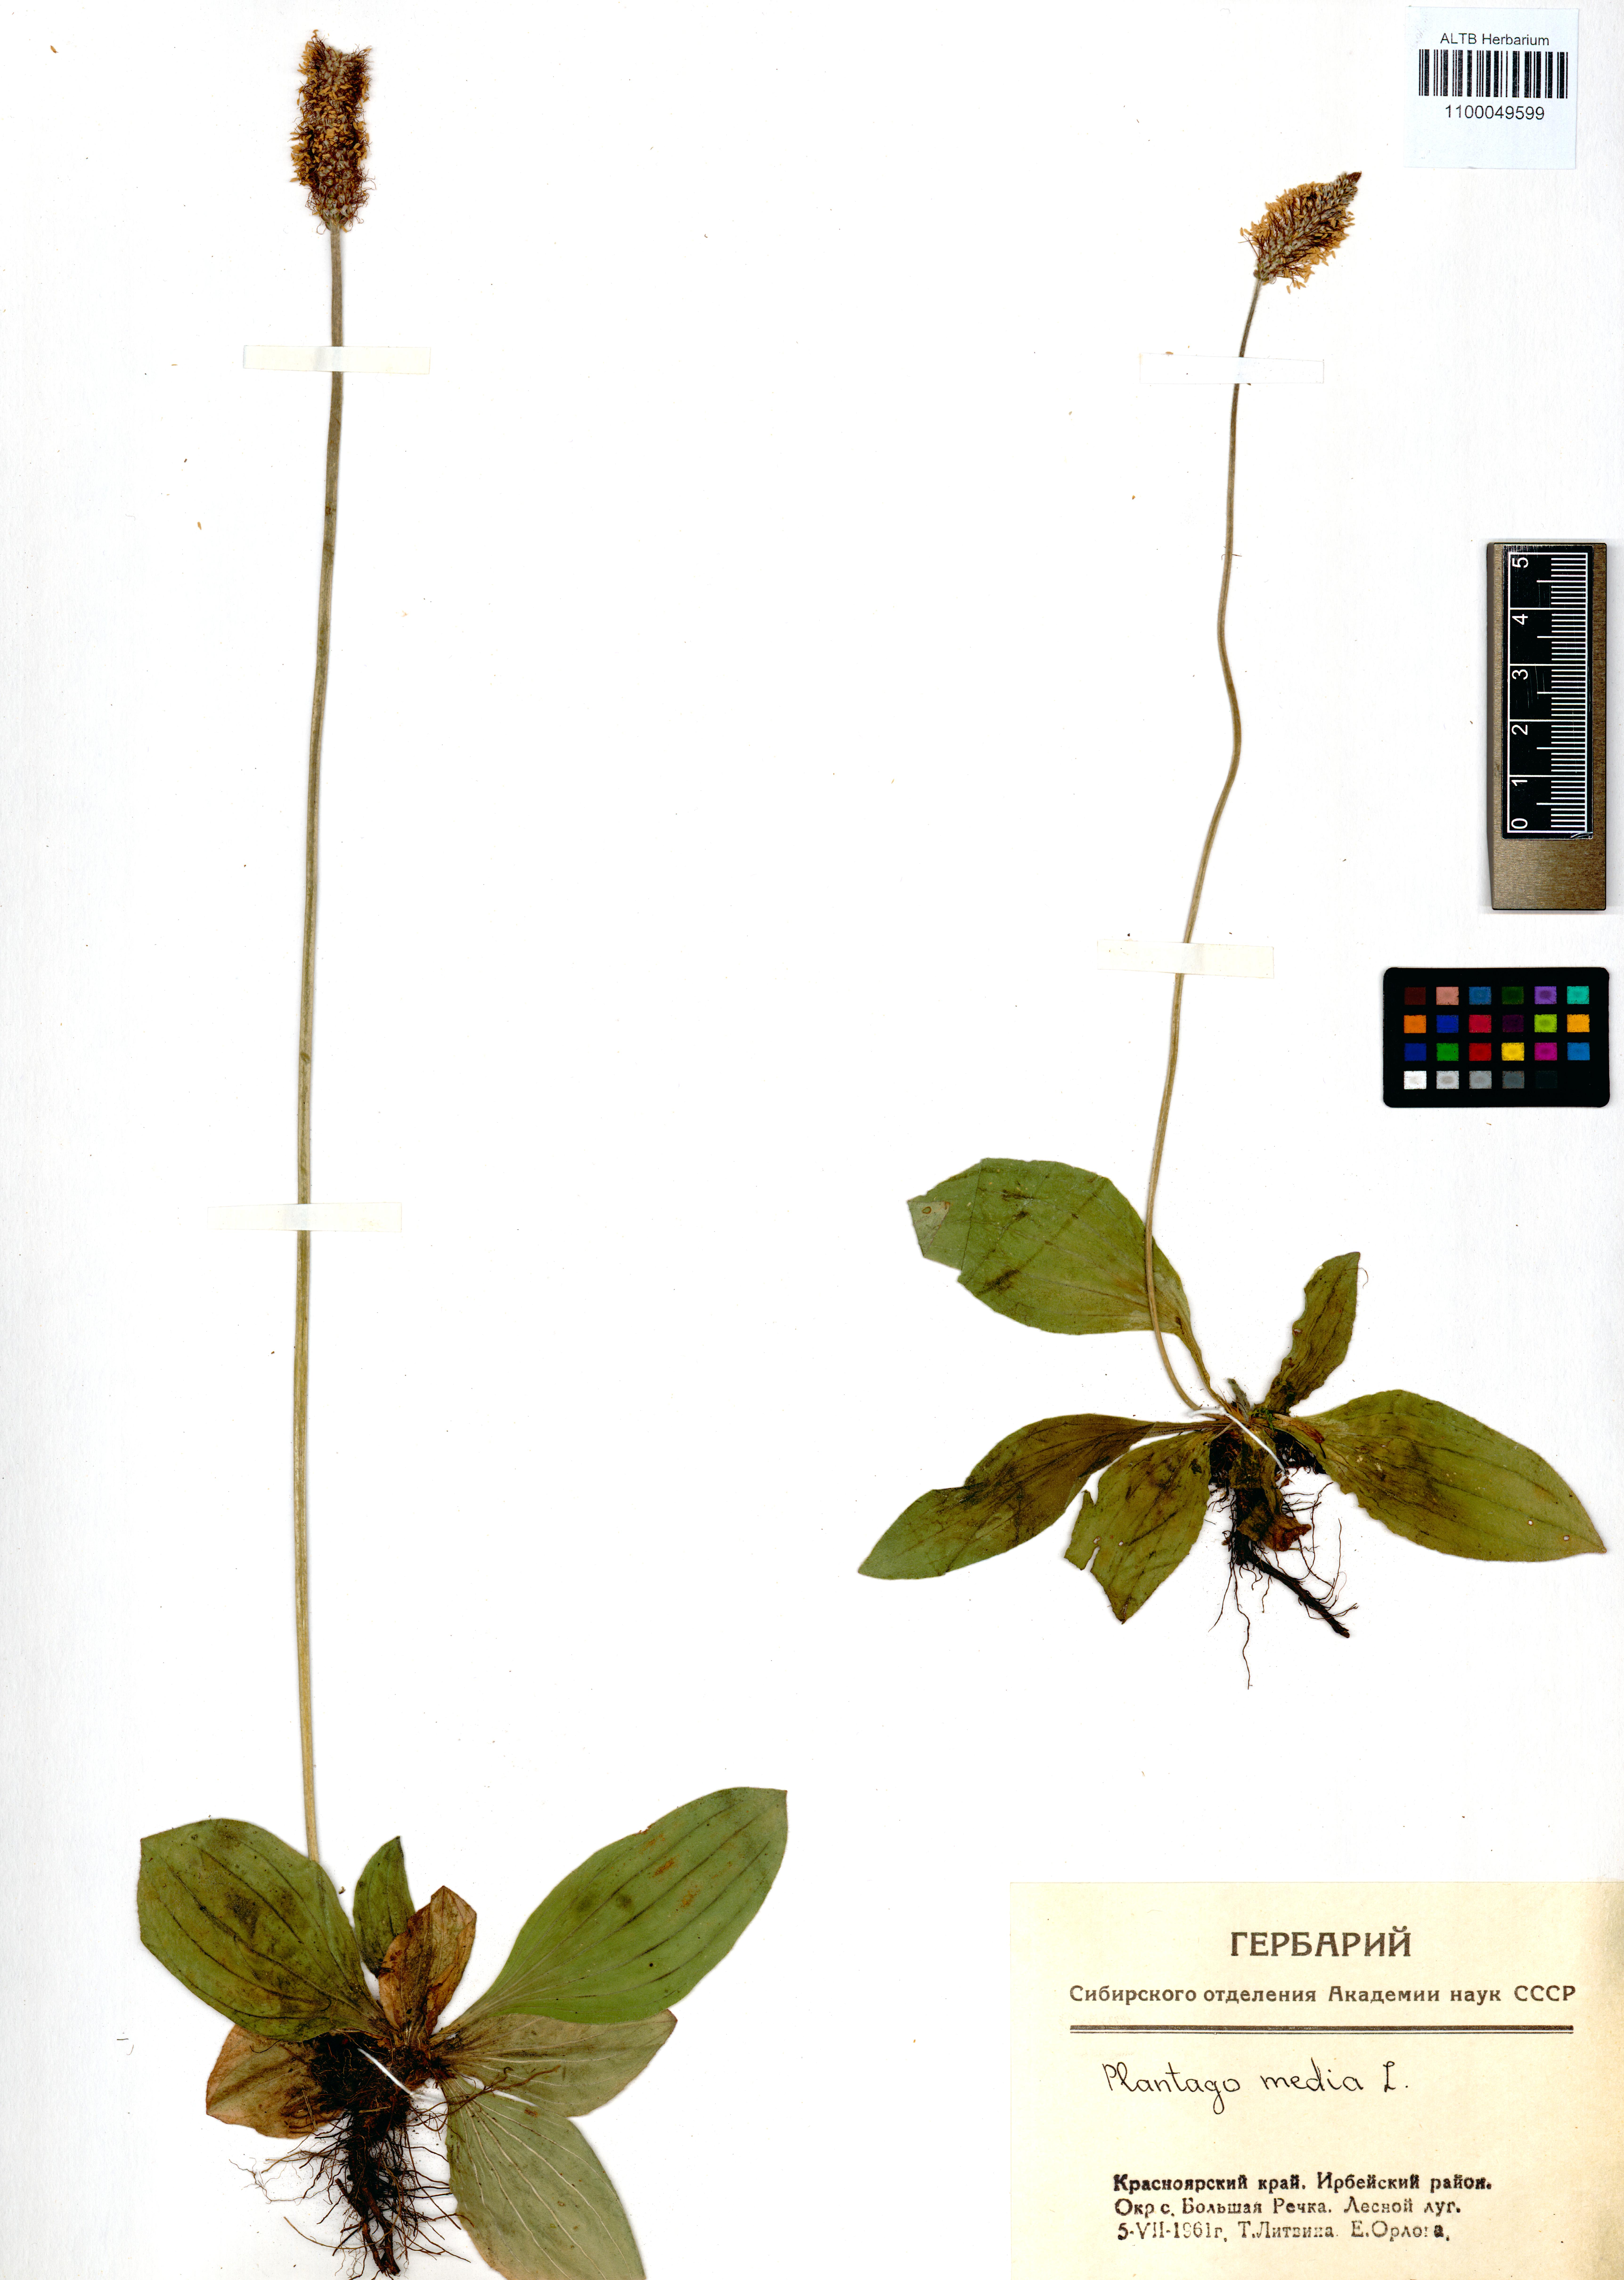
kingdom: Plantae
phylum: Tracheophyta
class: Magnoliopsida
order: Lamiales
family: Plantaginaceae
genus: Plantago
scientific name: Plantago media
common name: Hoary plantain
